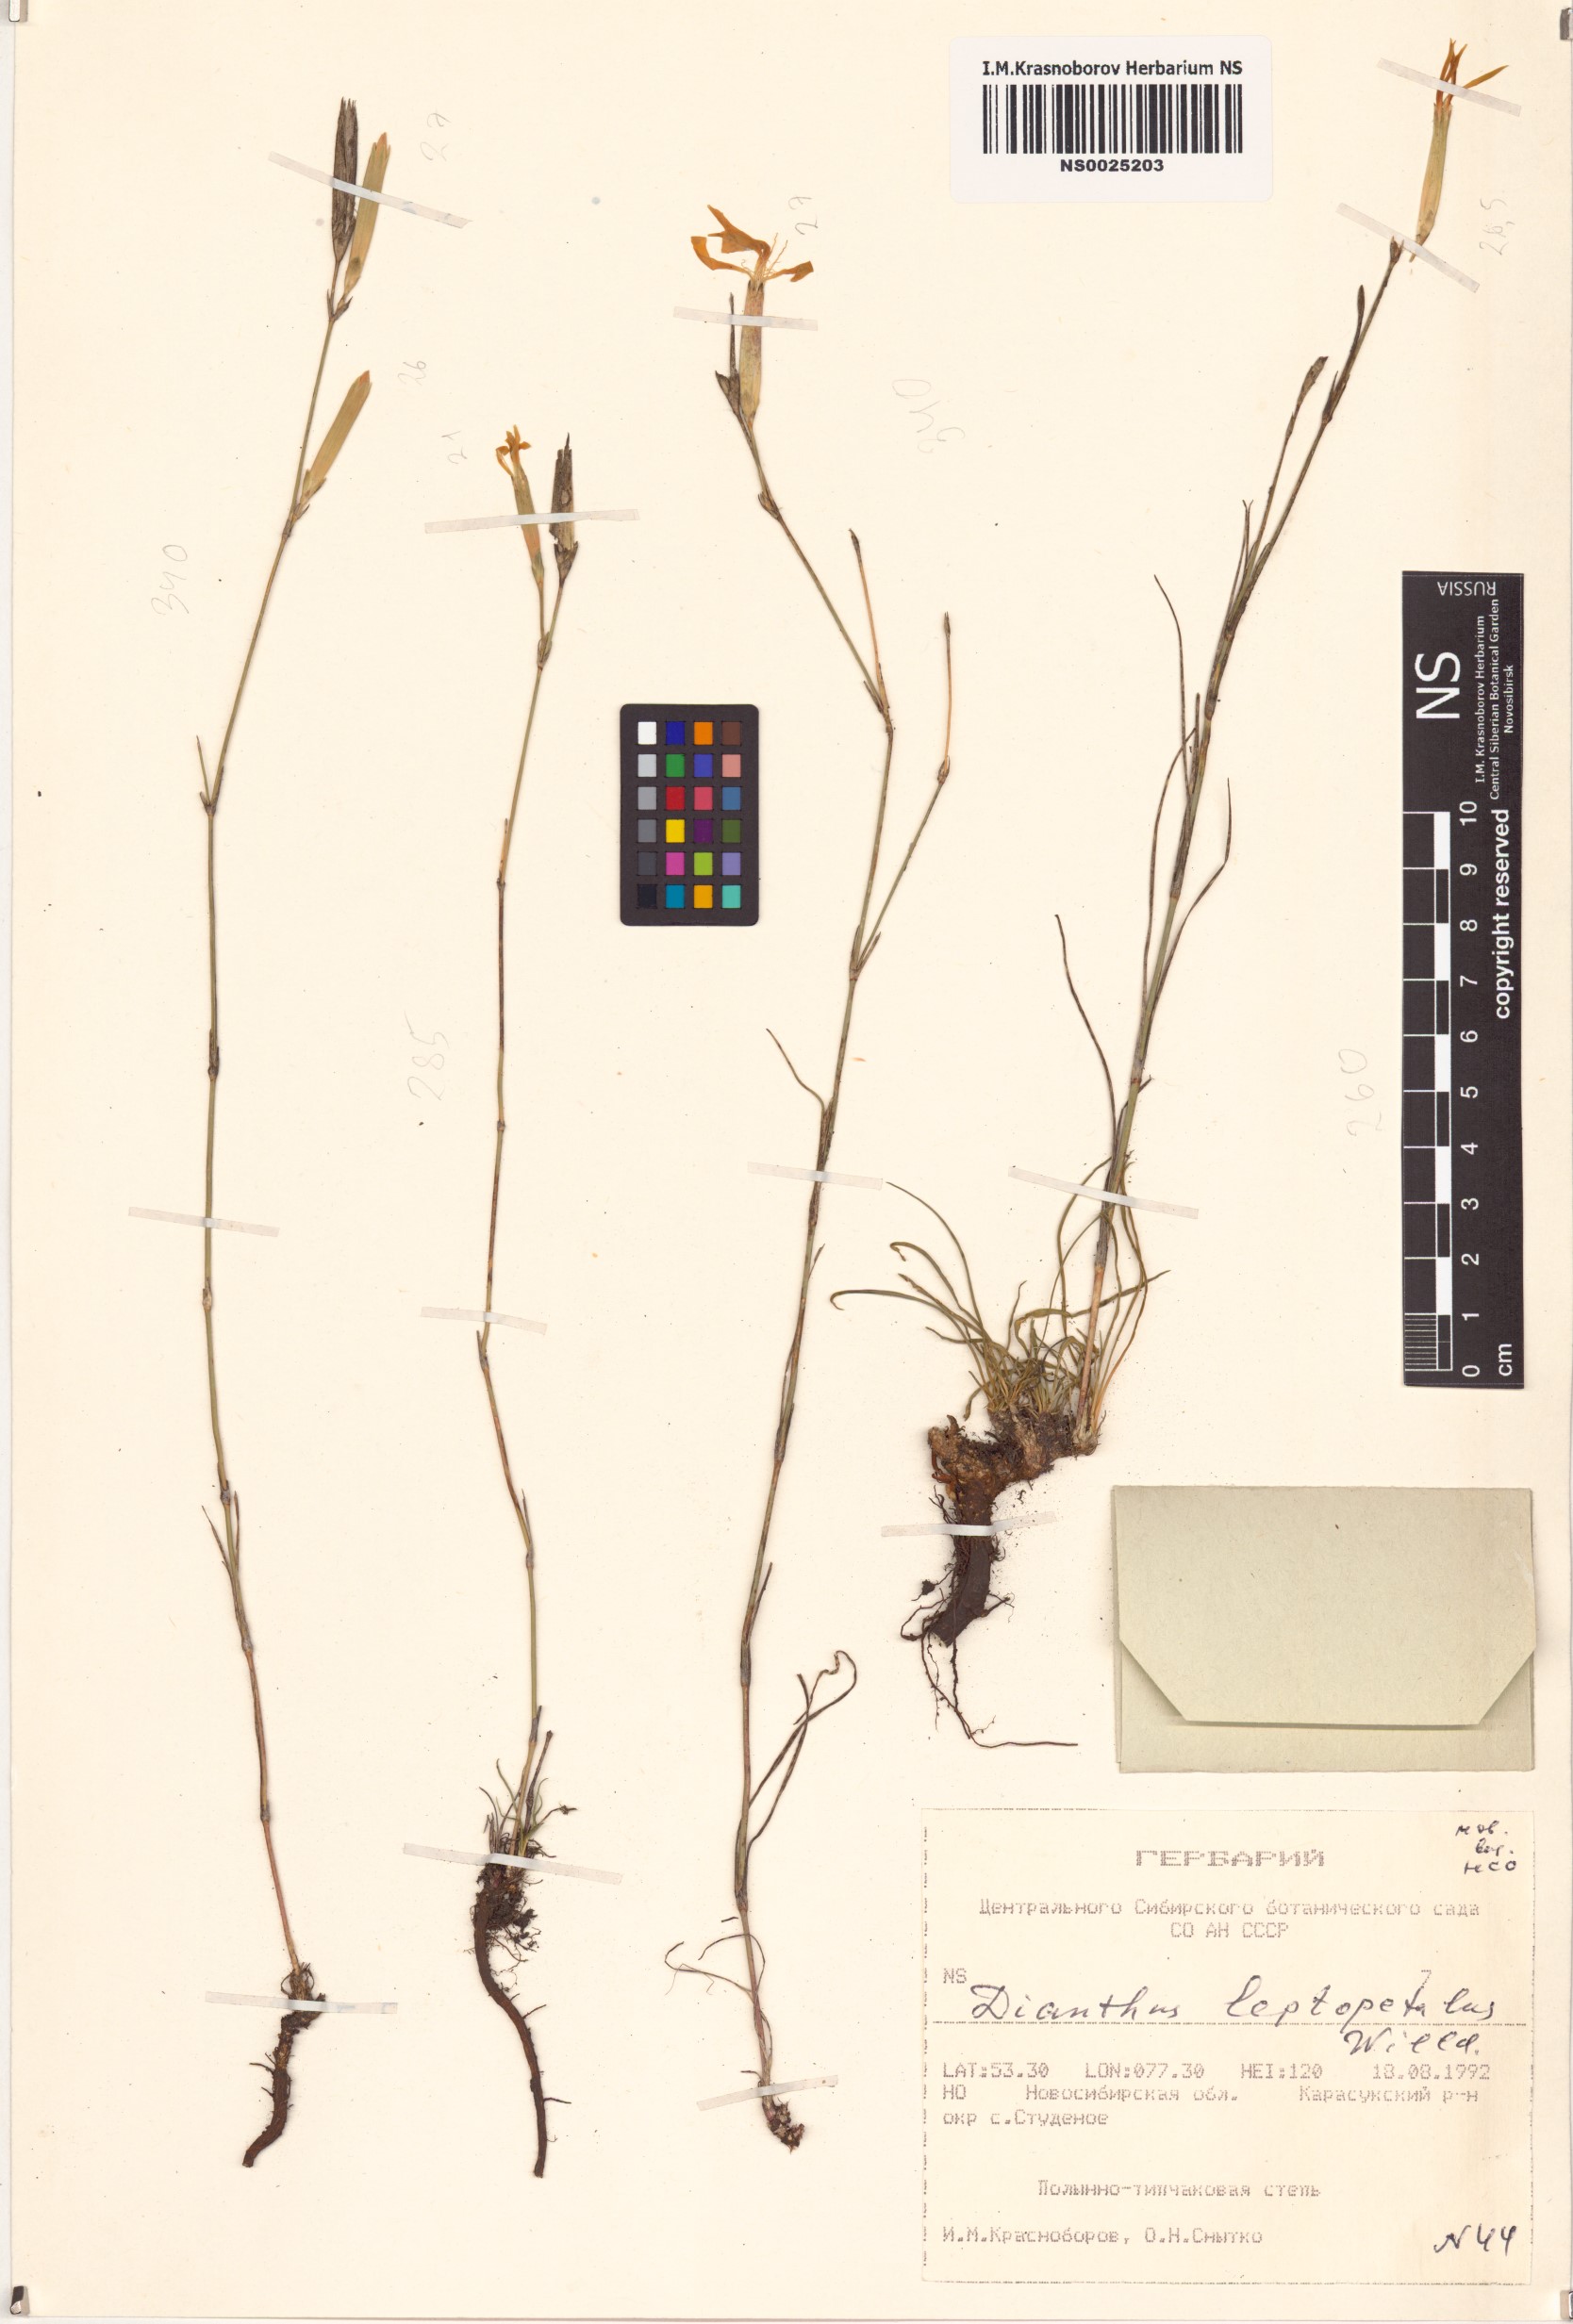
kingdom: Plantae
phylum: Tracheophyta
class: Magnoliopsida
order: Caryophyllales
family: Caryophyllaceae
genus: Dianthus
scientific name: Dianthus leptopetalus
